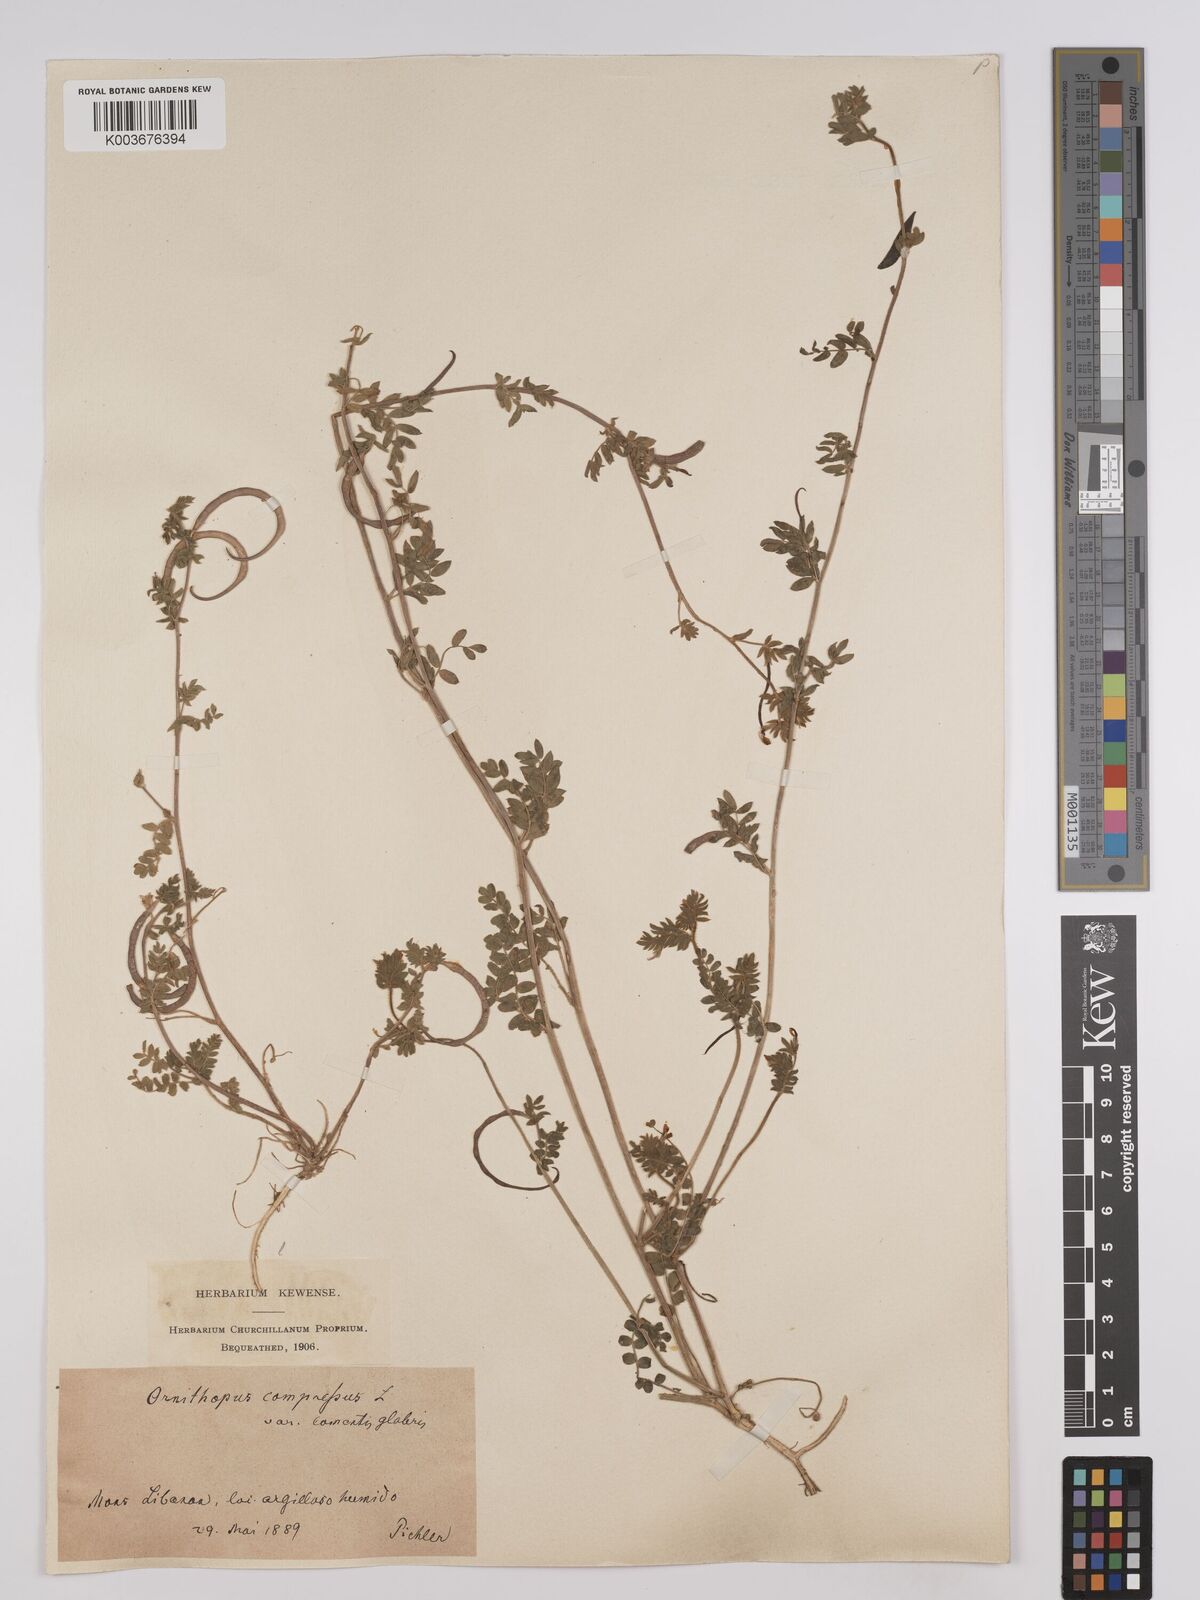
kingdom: Plantae
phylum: Tracheophyta
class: Magnoliopsida
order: Fabales
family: Fabaceae
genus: Hosackia
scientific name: Hosackia
